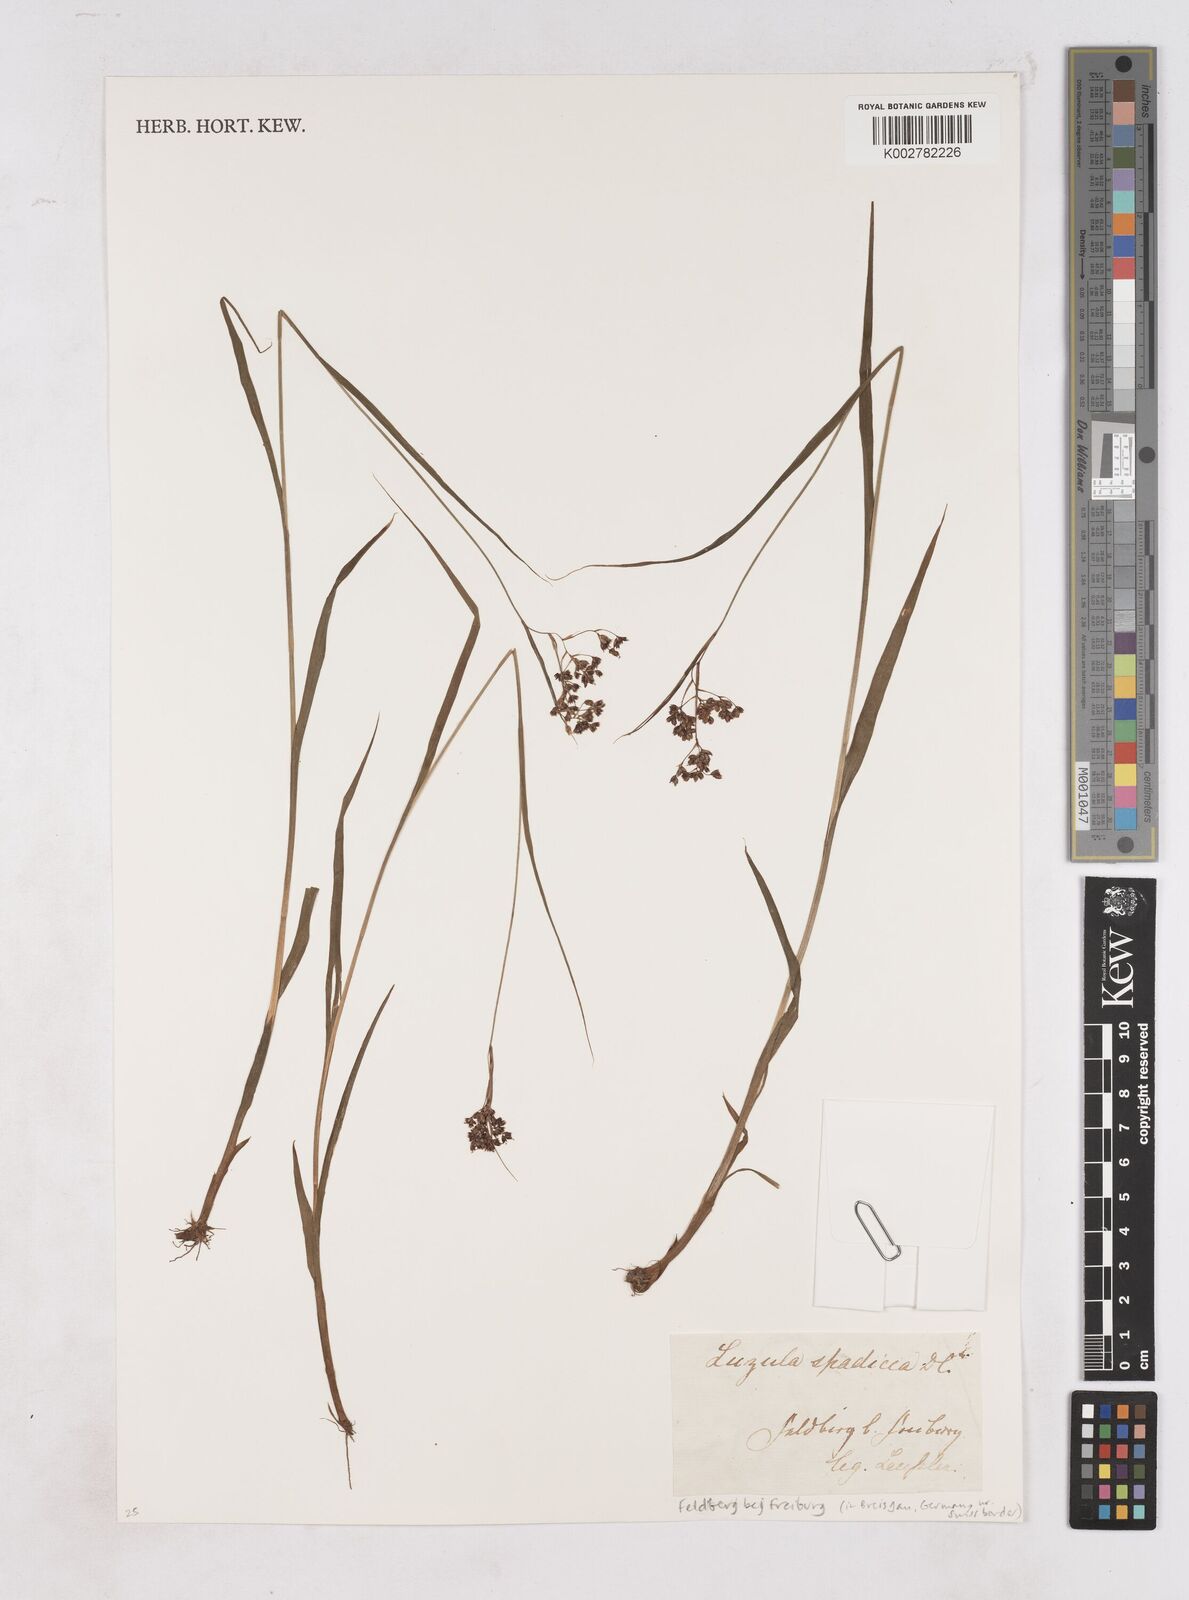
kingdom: Plantae
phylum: Tracheophyta
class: Liliopsida
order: Poales
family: Juncaceae
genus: Luzula
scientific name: Luzula alpinopilosa
